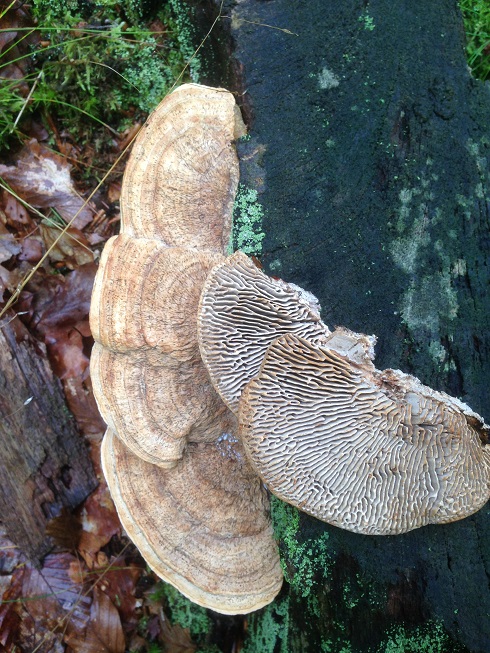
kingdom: Fungi
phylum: Basidiomycota
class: Agaricomycetes
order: Polyporales
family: Fomitopsidaceae
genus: Daedalea
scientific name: Daedalea quercina
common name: ege-labyrintsvamp
